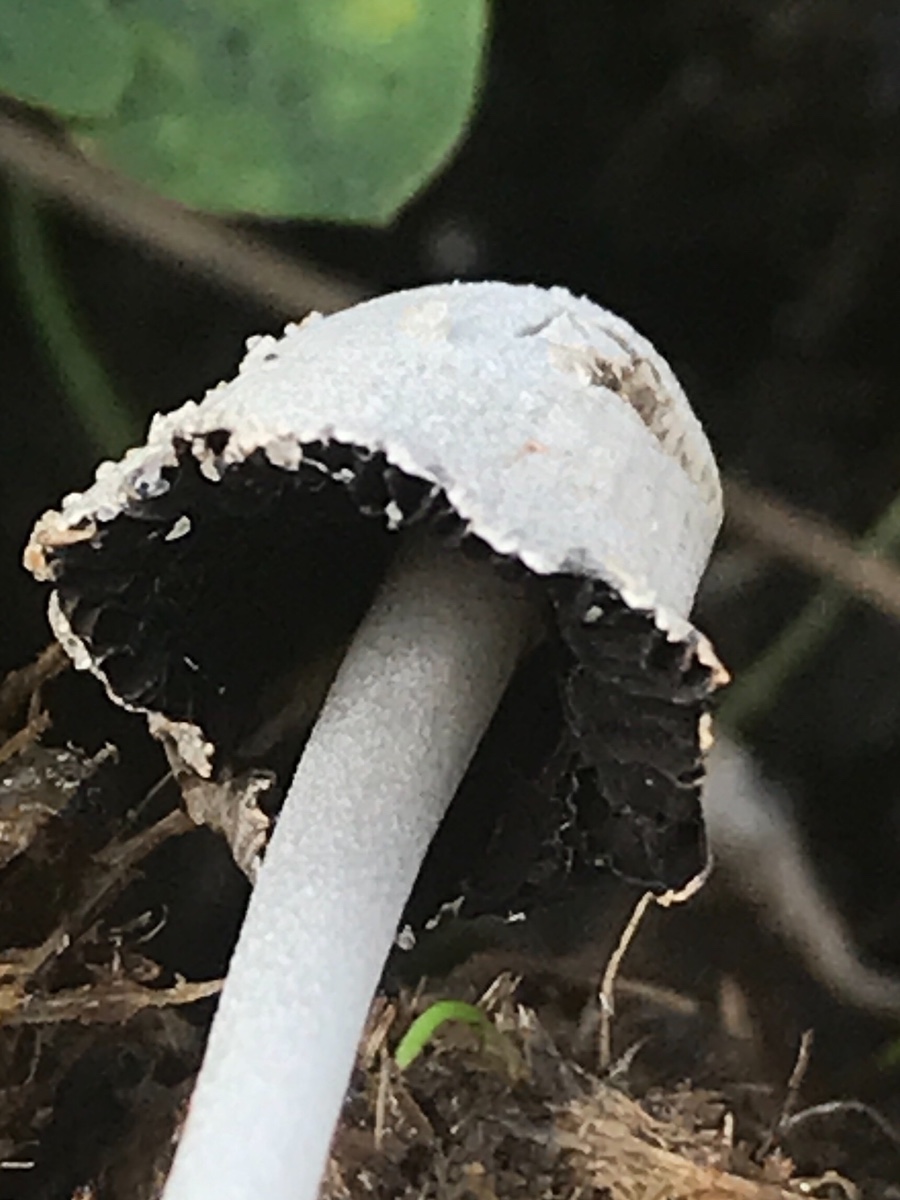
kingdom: Fungi
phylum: Basidiomycota
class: Agaricomycetes
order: Agaricales
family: Psathyrellaceae
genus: Coprinopsis
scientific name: Coprinopsis nivea
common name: snehvid blækhat
